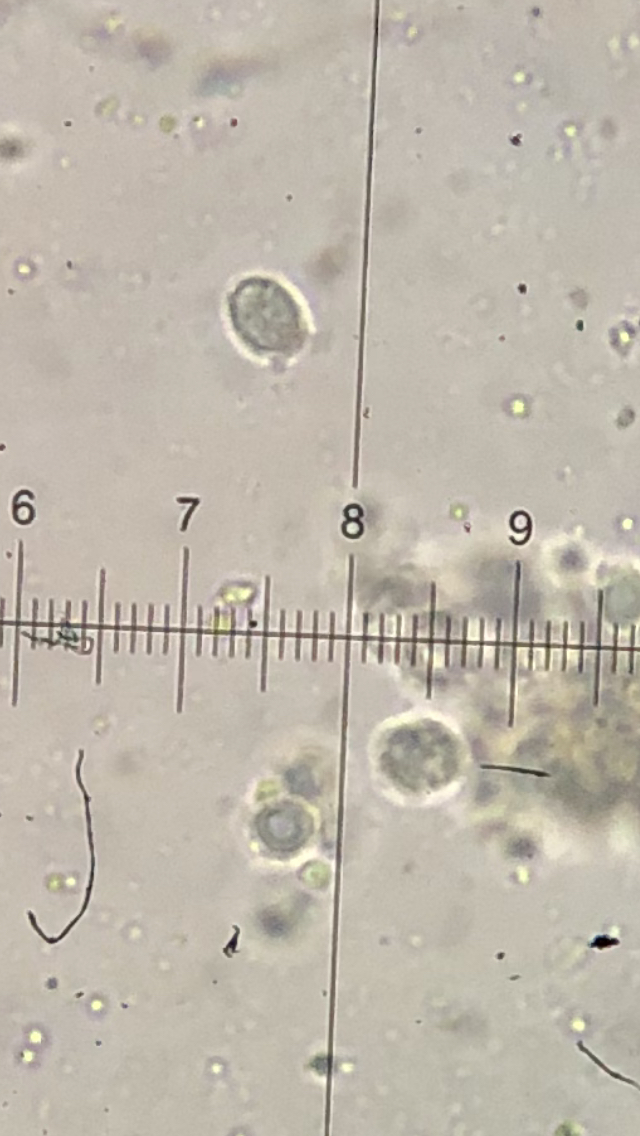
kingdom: Fungi
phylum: Basidiomycota
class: Agaricomycetes
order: Agaricales
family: Tricholomataceae
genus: Lepista
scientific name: Lepista
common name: hekseringshat
